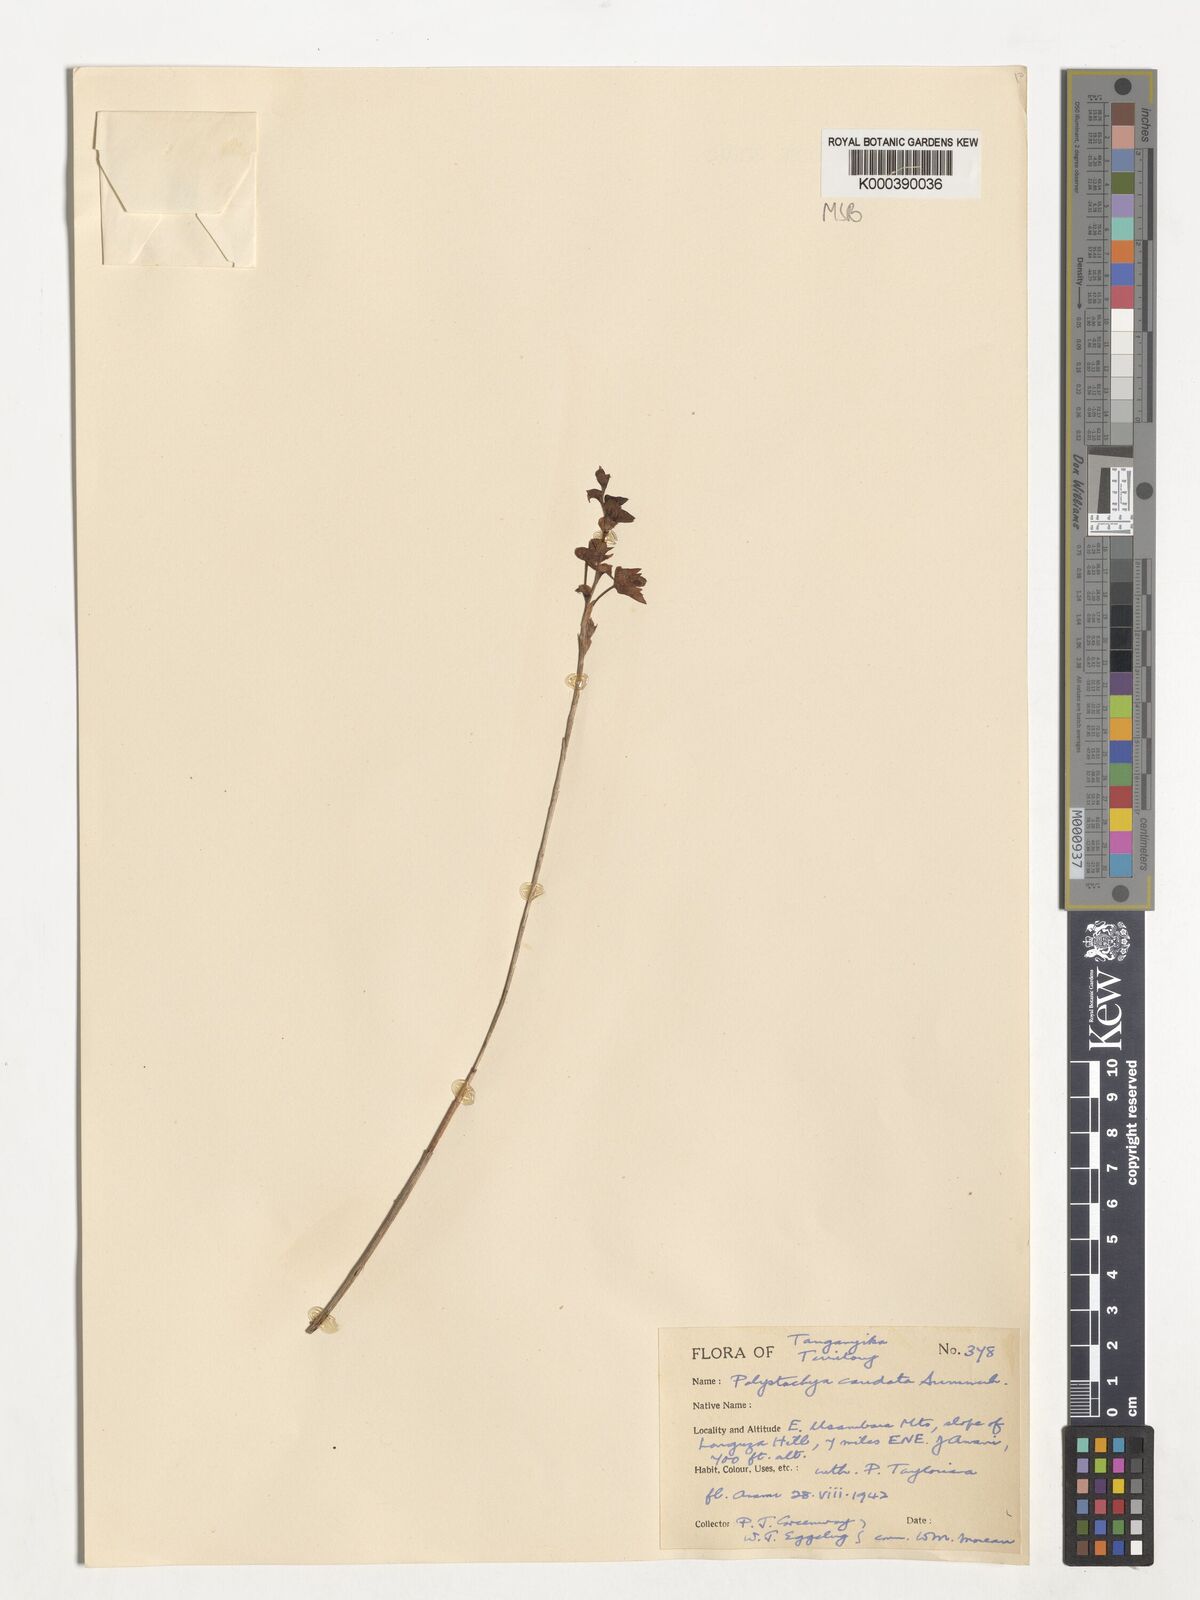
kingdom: Plantae
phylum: Tracheophyta
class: Liliopsida
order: Asparagales
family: Orchidaceae
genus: Polystachya
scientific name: Polystachya caudata
